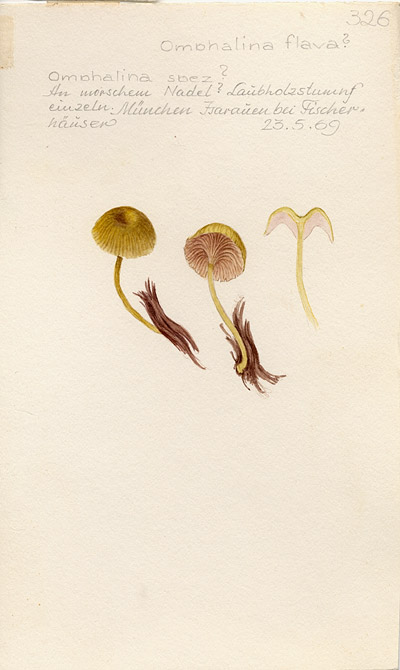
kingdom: Fungi
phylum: Basidiomycota
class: Agaricomycetes
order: Agaricales
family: Hygrophoraceae
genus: Lichenomphalia
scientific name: Lichenomphalia alpina
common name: Sunburst lichen
